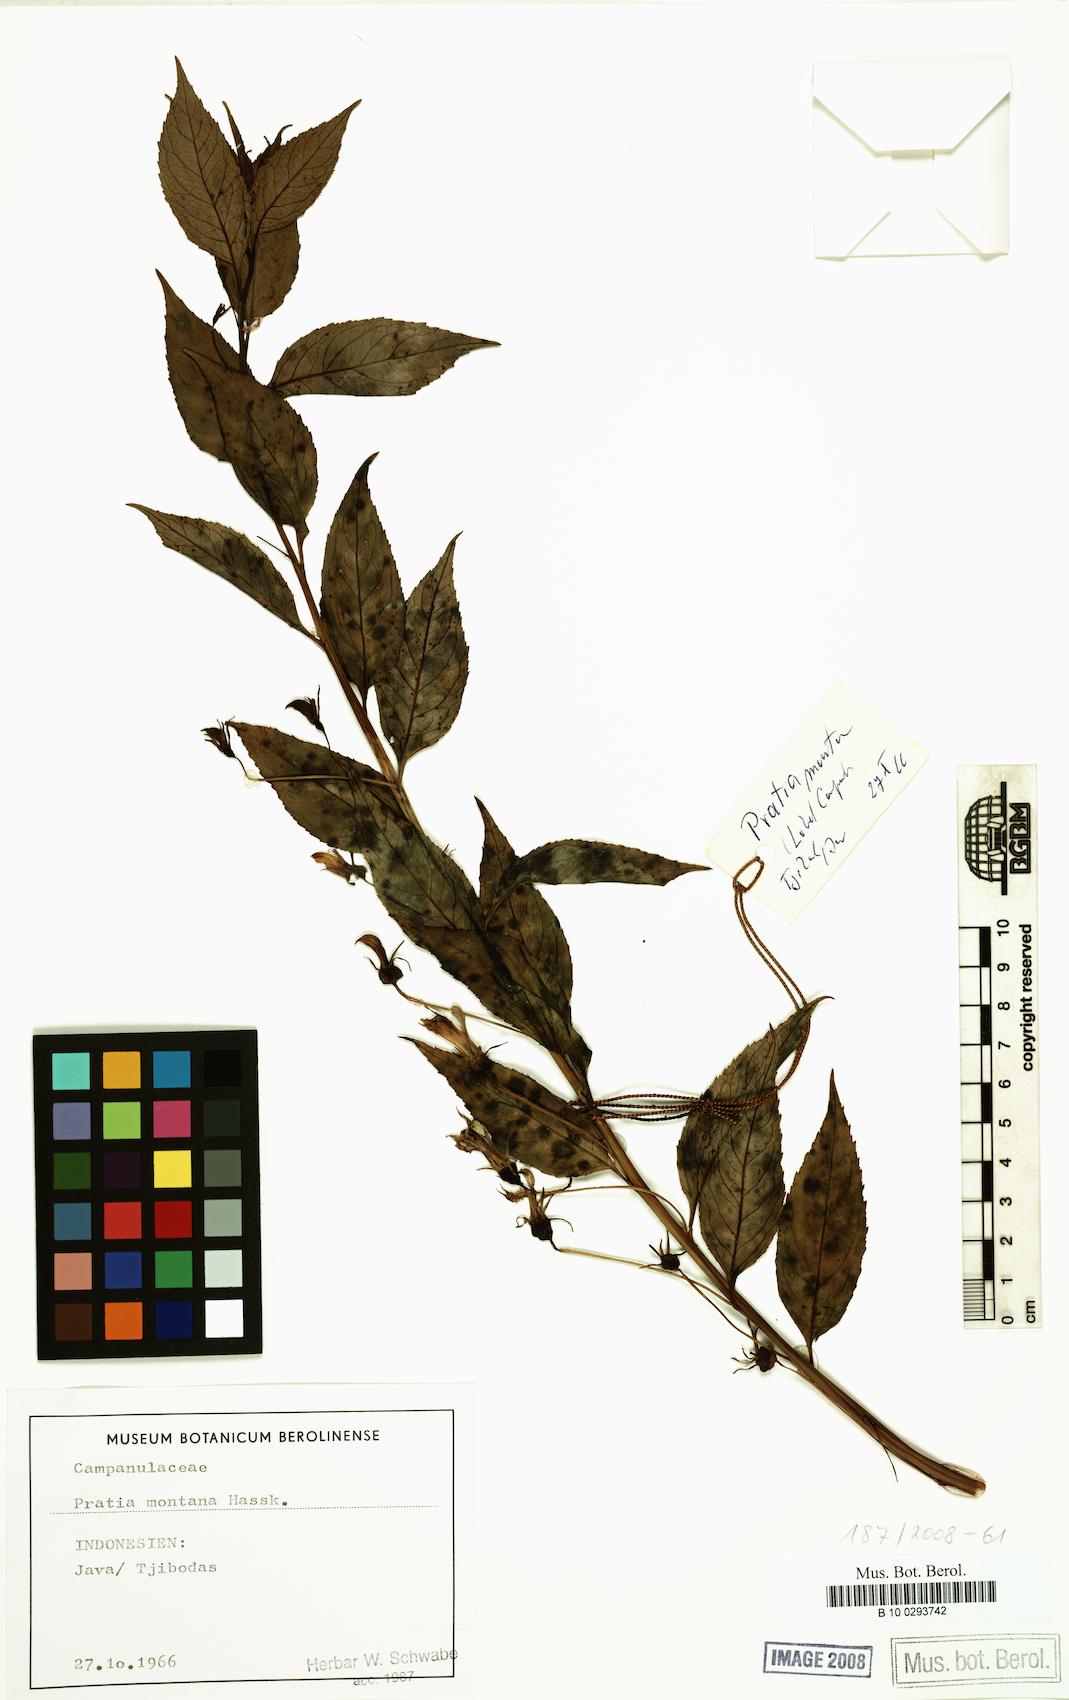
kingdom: Plantae
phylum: Tracheophyta
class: Magnoliopsida
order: Asterales
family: Campanulaceae
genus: Lobelia
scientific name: Lobelia montana
